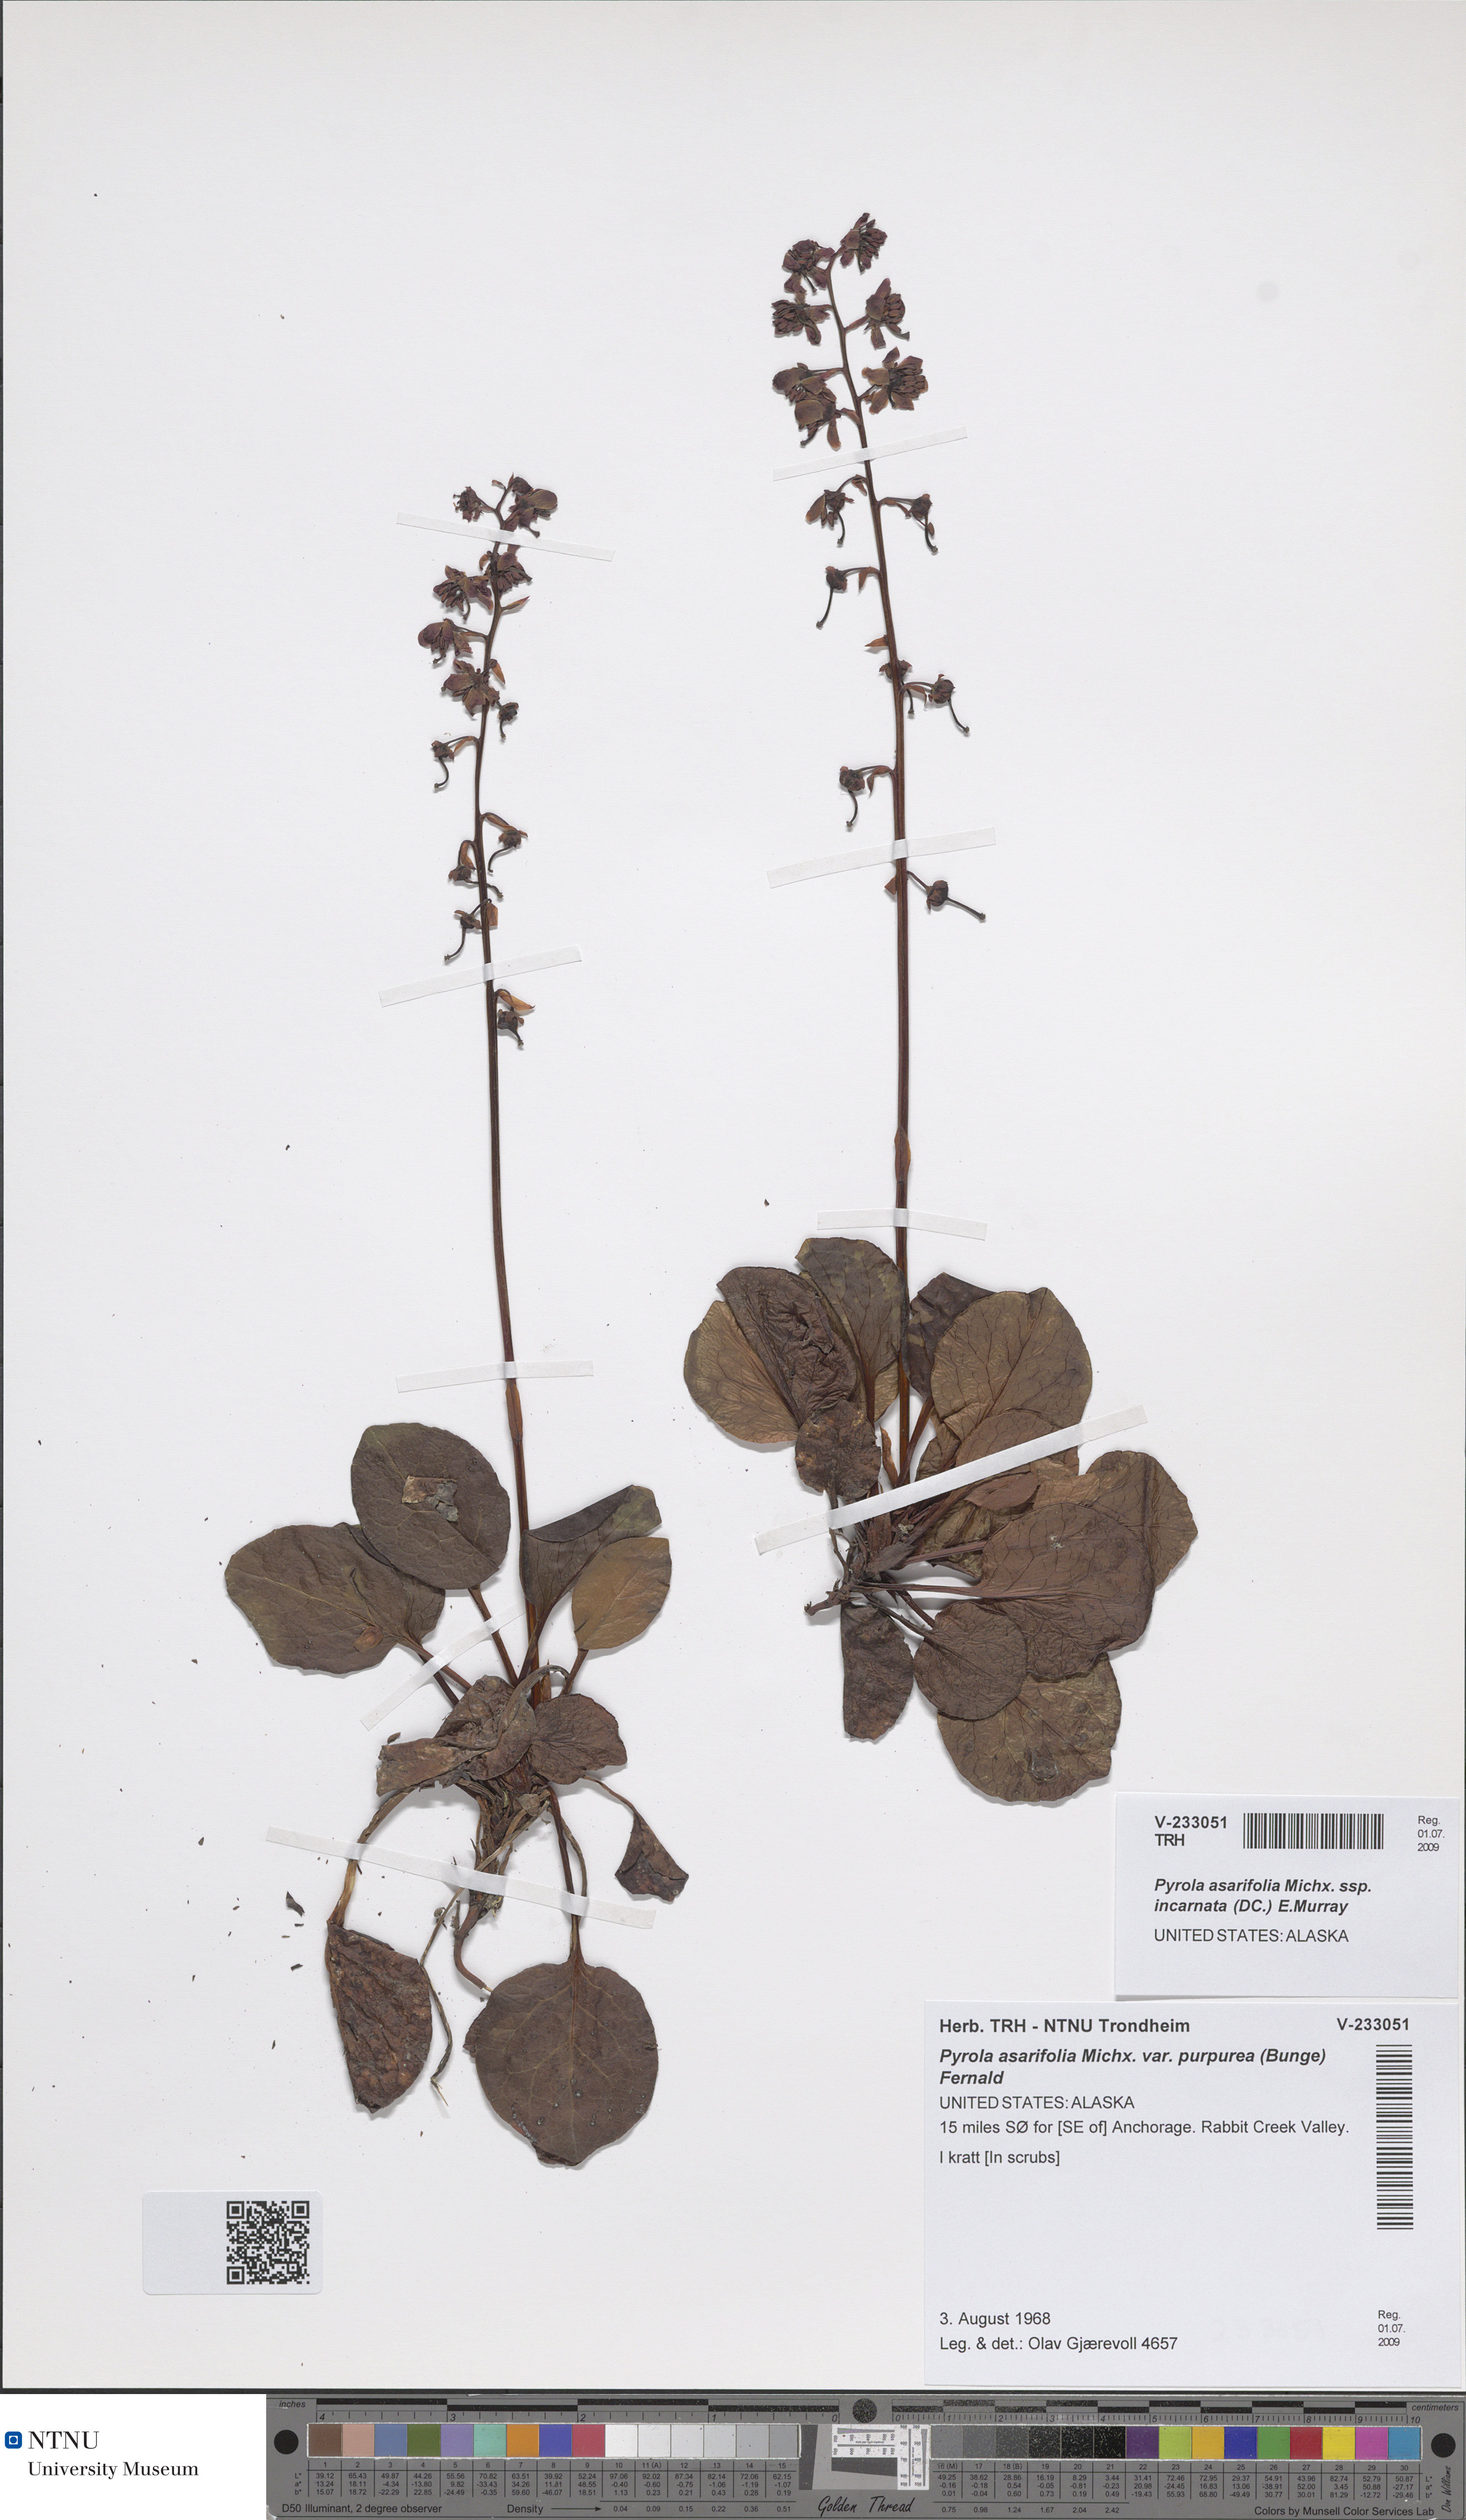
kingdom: Plantae
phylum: Tracheophyta
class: Magnoliopsida
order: Ericales
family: Ericaceae
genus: Pyrola
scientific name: Pyrola asarifolia
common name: Bog wintergreen
